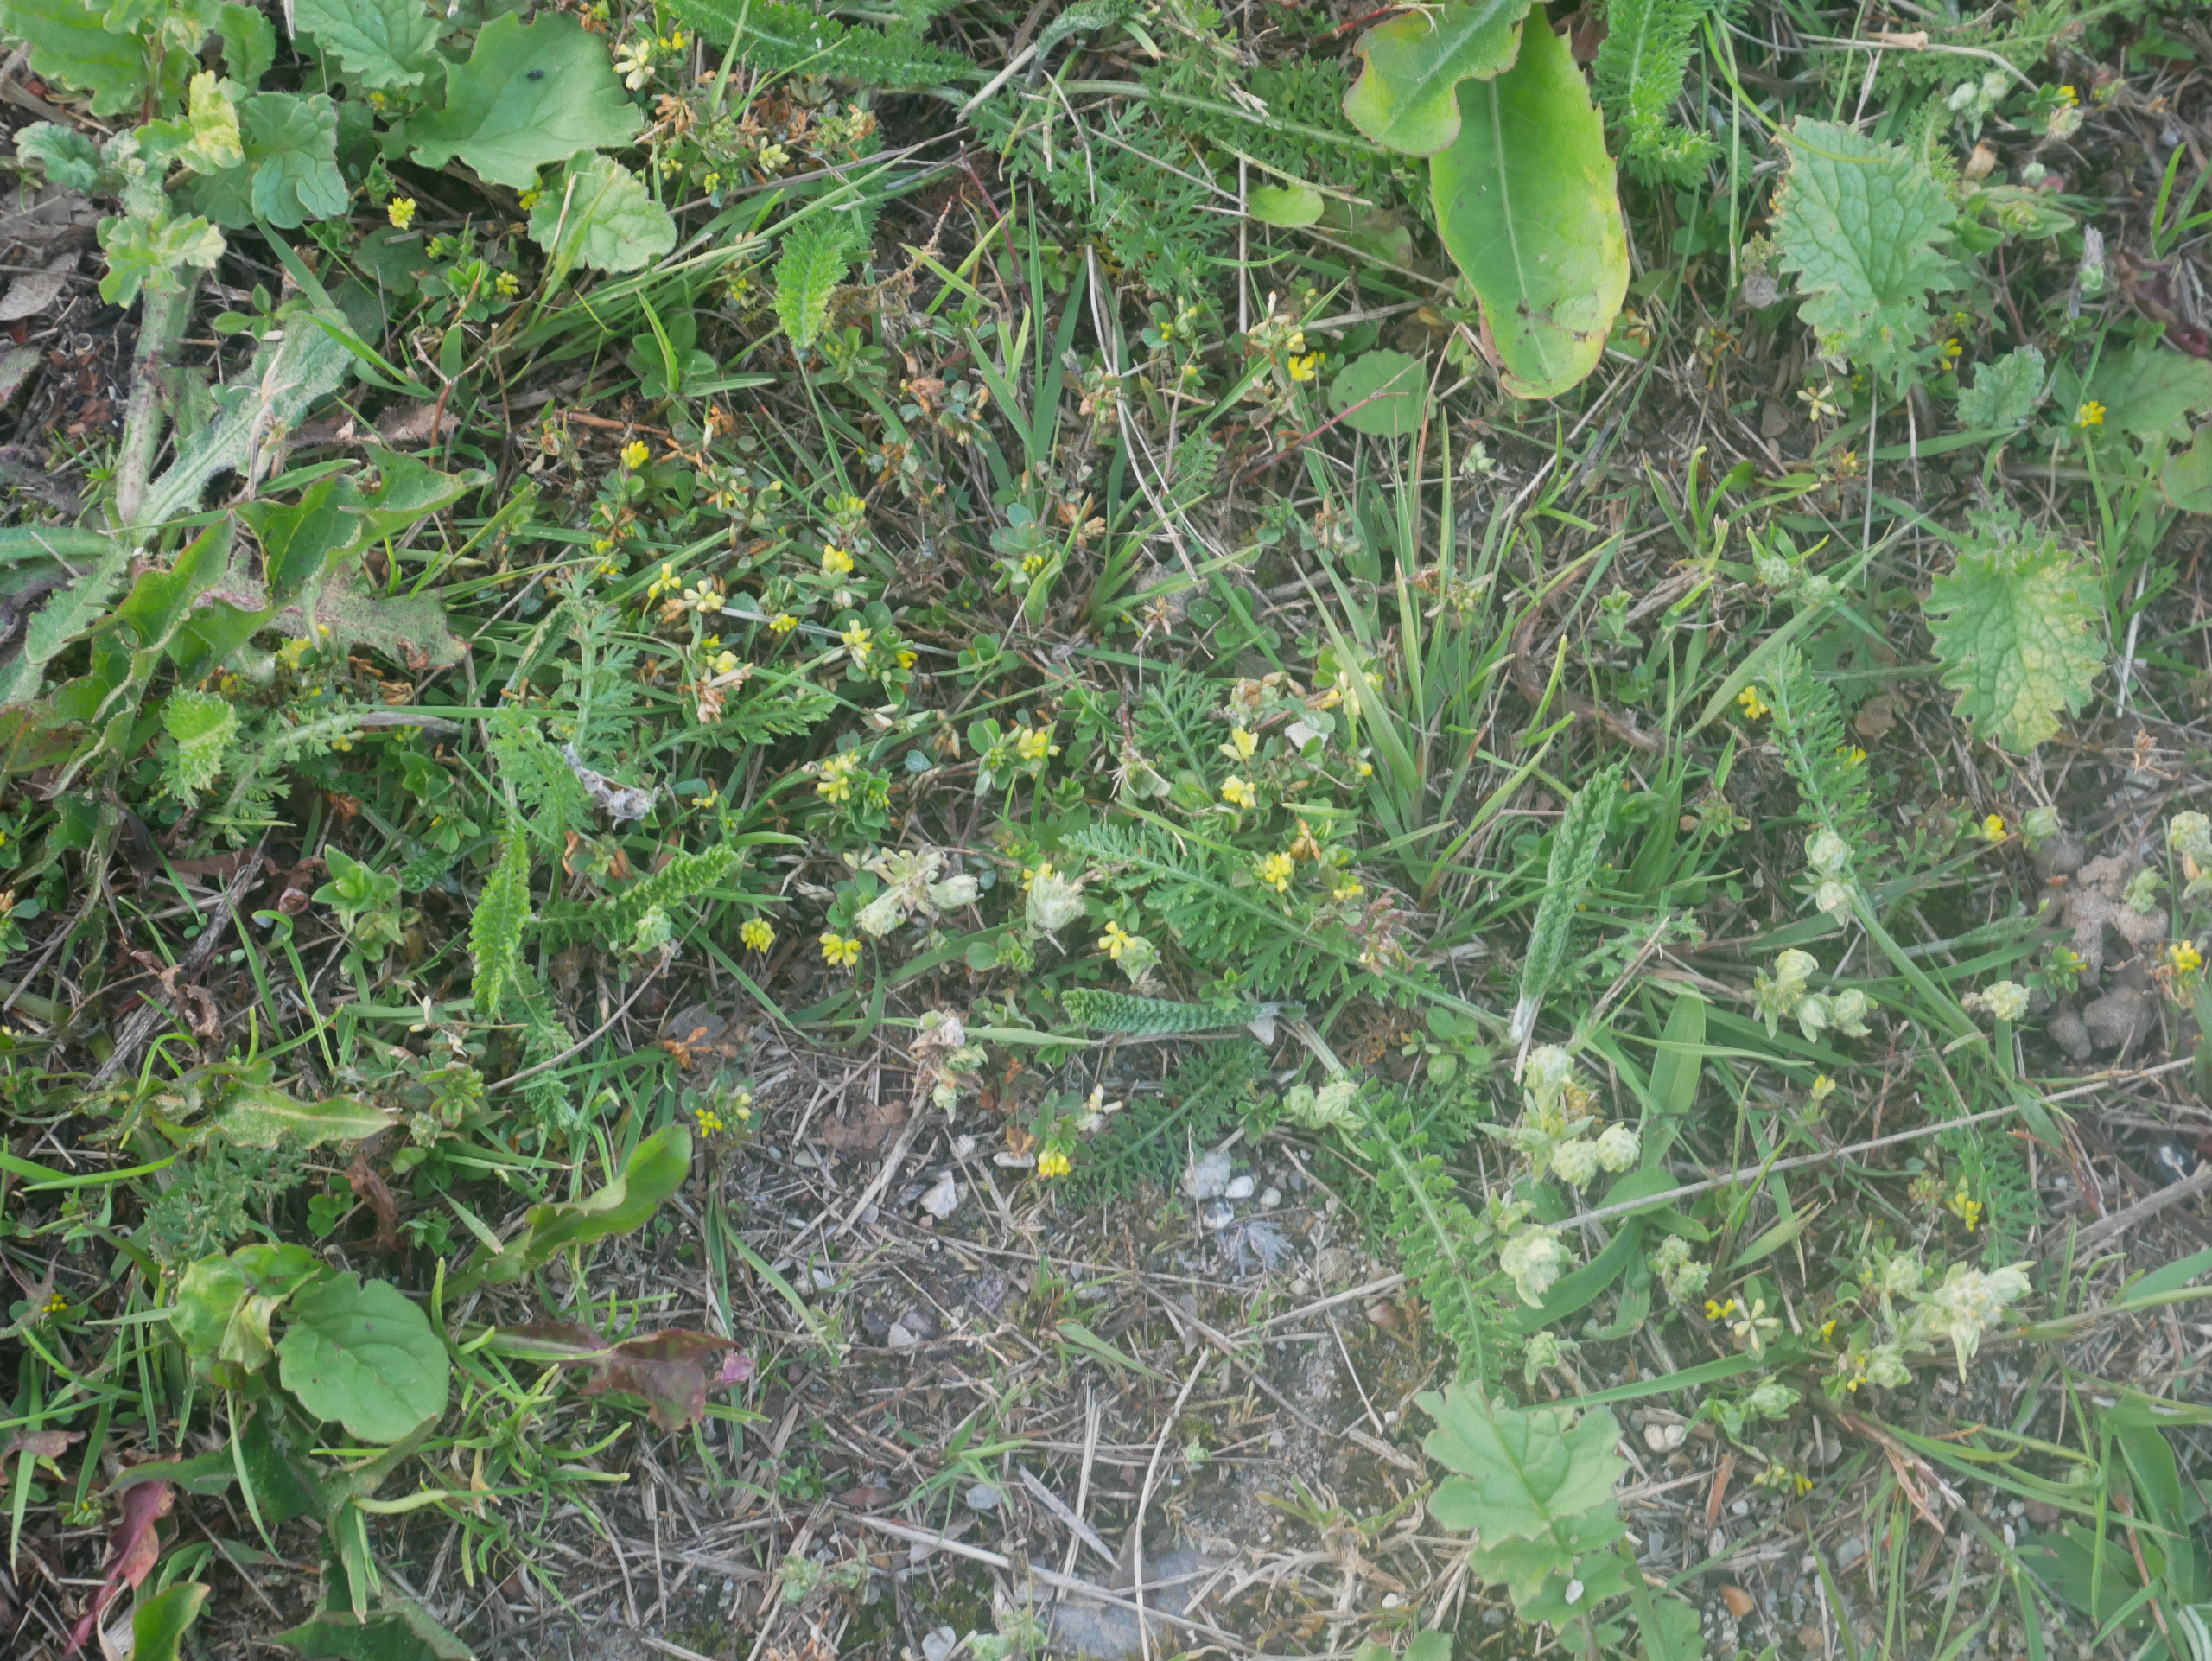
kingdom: Plantae
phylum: Tracheophyta
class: Magnoliopsida
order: Fabales
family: Fabaceae
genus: Trifolium
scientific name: Trifolium dubium
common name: Fin kløver
